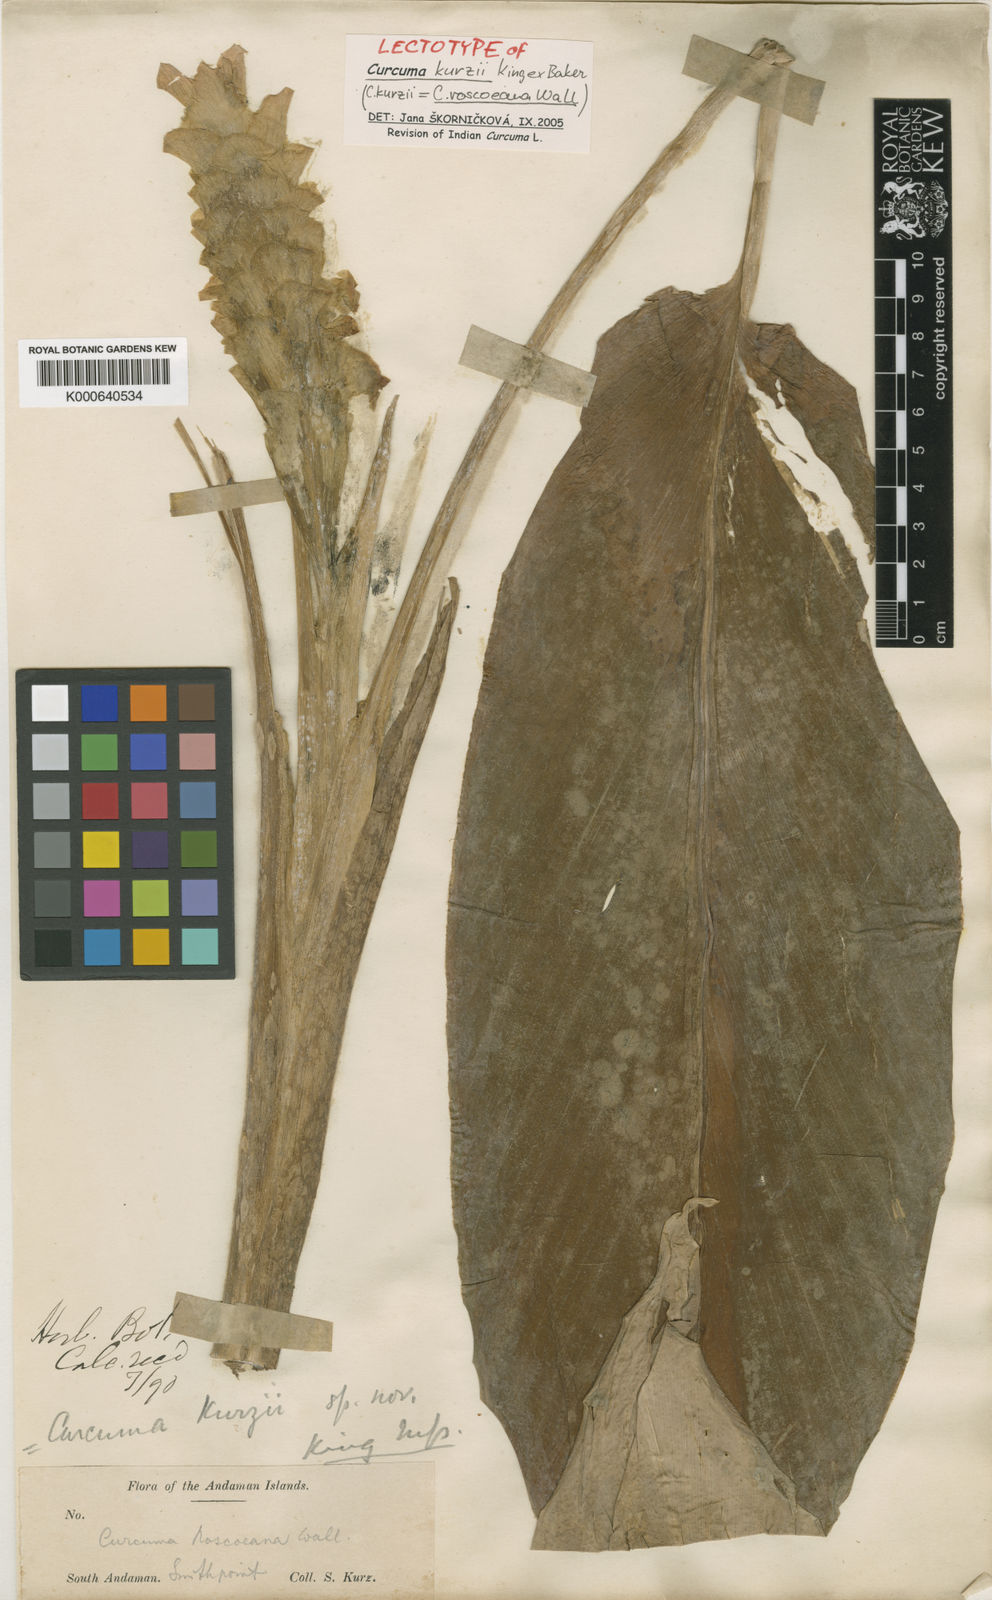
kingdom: Plantae
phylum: Tracheophyta
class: Liliopsida
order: Zingiberales
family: Zingiberaceae
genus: Curcuma
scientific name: Curcuma roscoeana
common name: Jewel of burma
